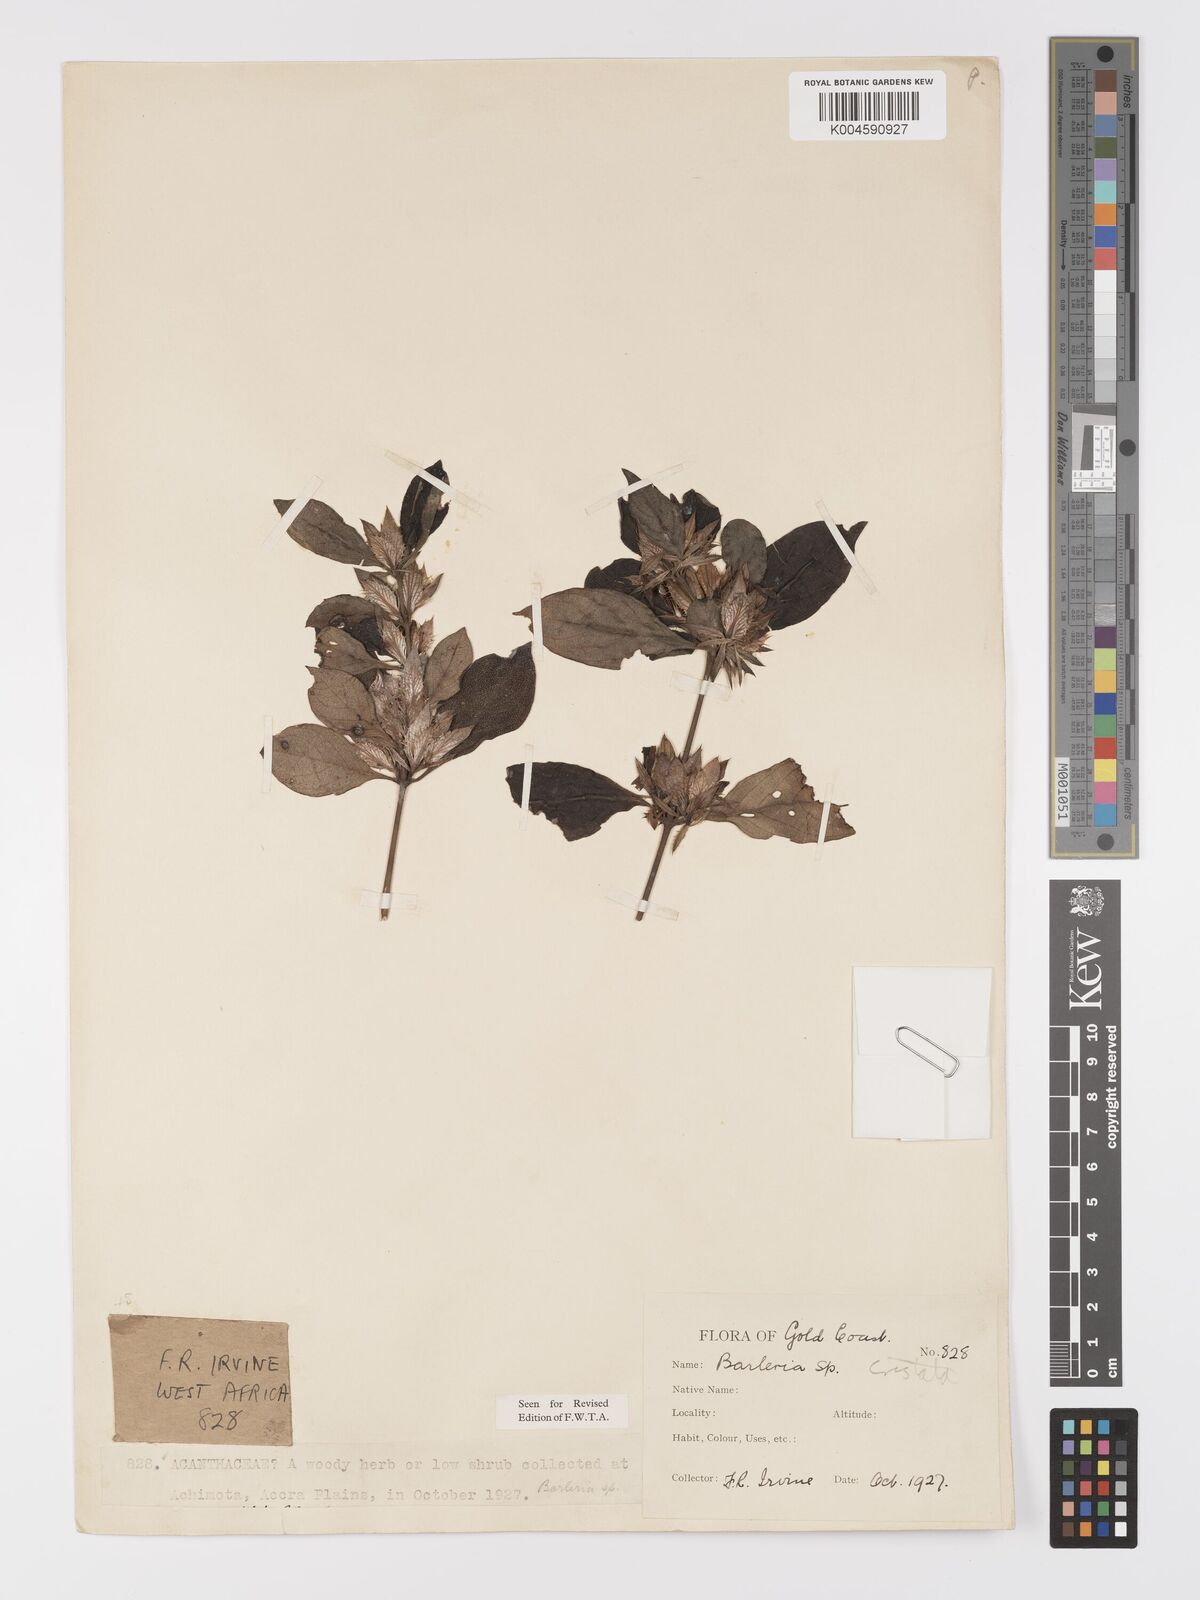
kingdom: Plantae
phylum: Tracheophyta
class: Magnoliopsida
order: Lamiales
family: Acanthaceae
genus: Barleria
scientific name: Barleria cristata
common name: Crested philippine violet
